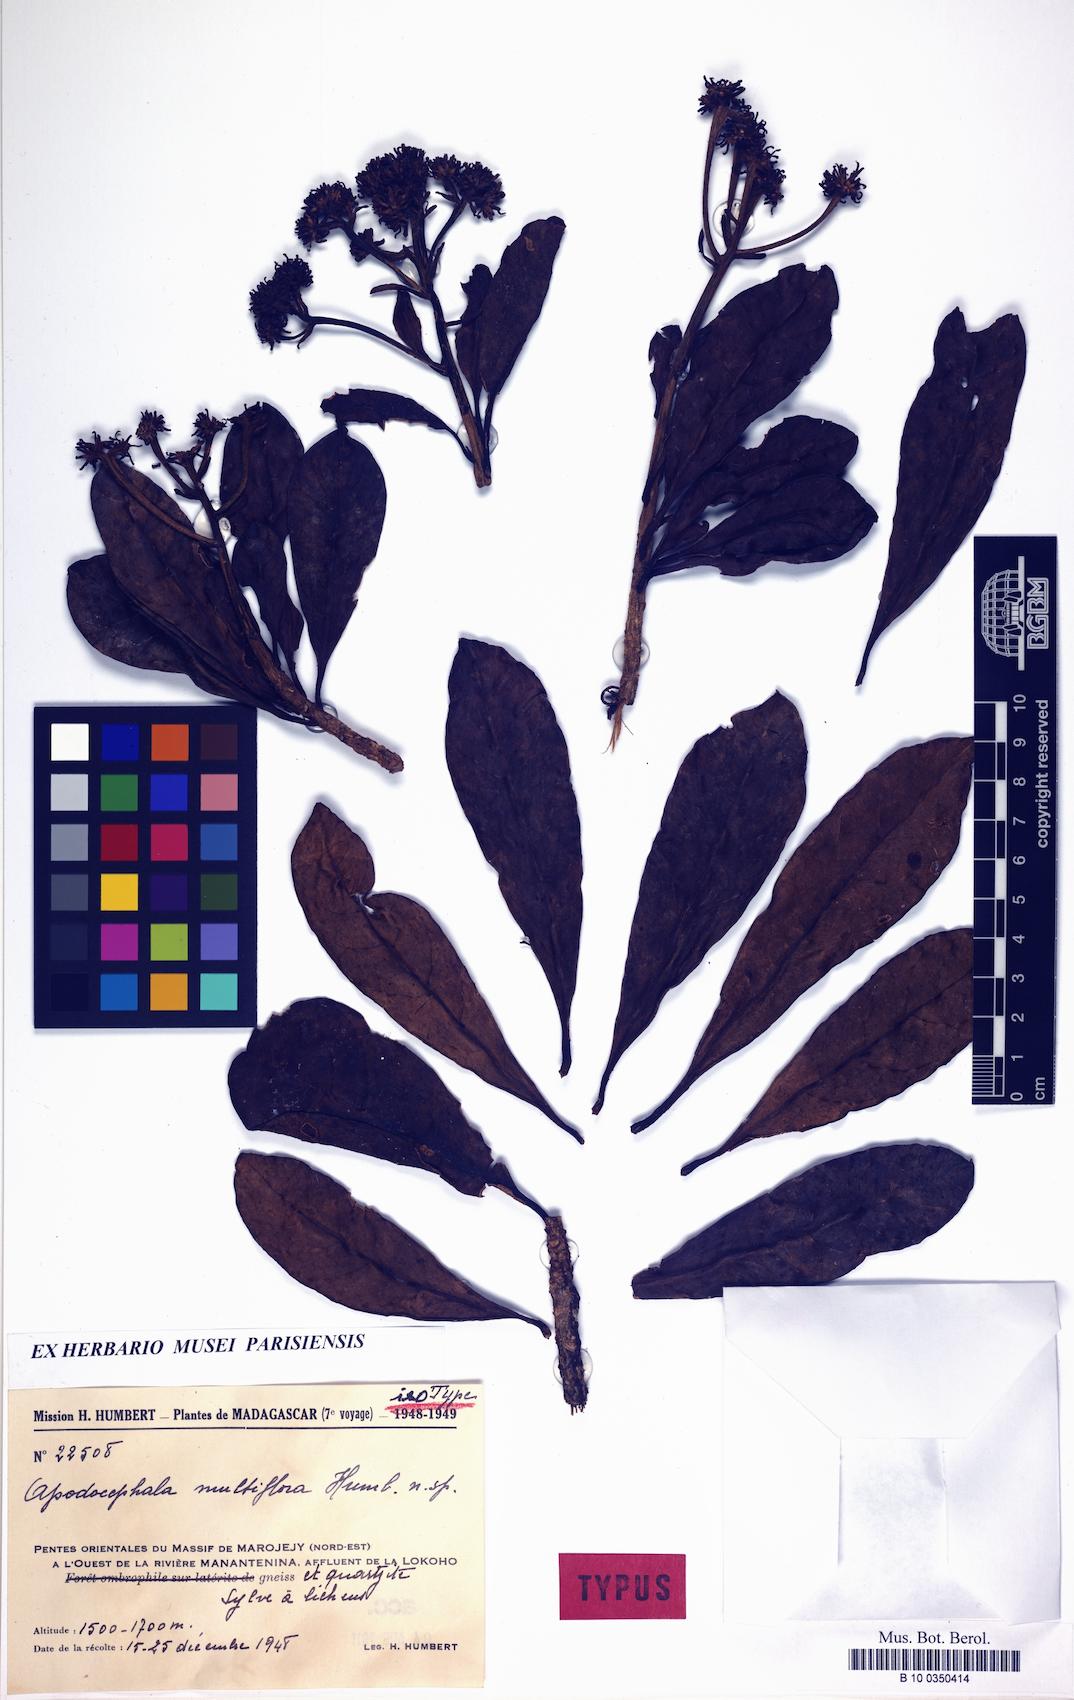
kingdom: Plantae
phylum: Tracheophyta
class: Magnoliopsida
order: Asterales
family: Asteraceae
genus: Apodocephala
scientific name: Apodocephala multiflora
